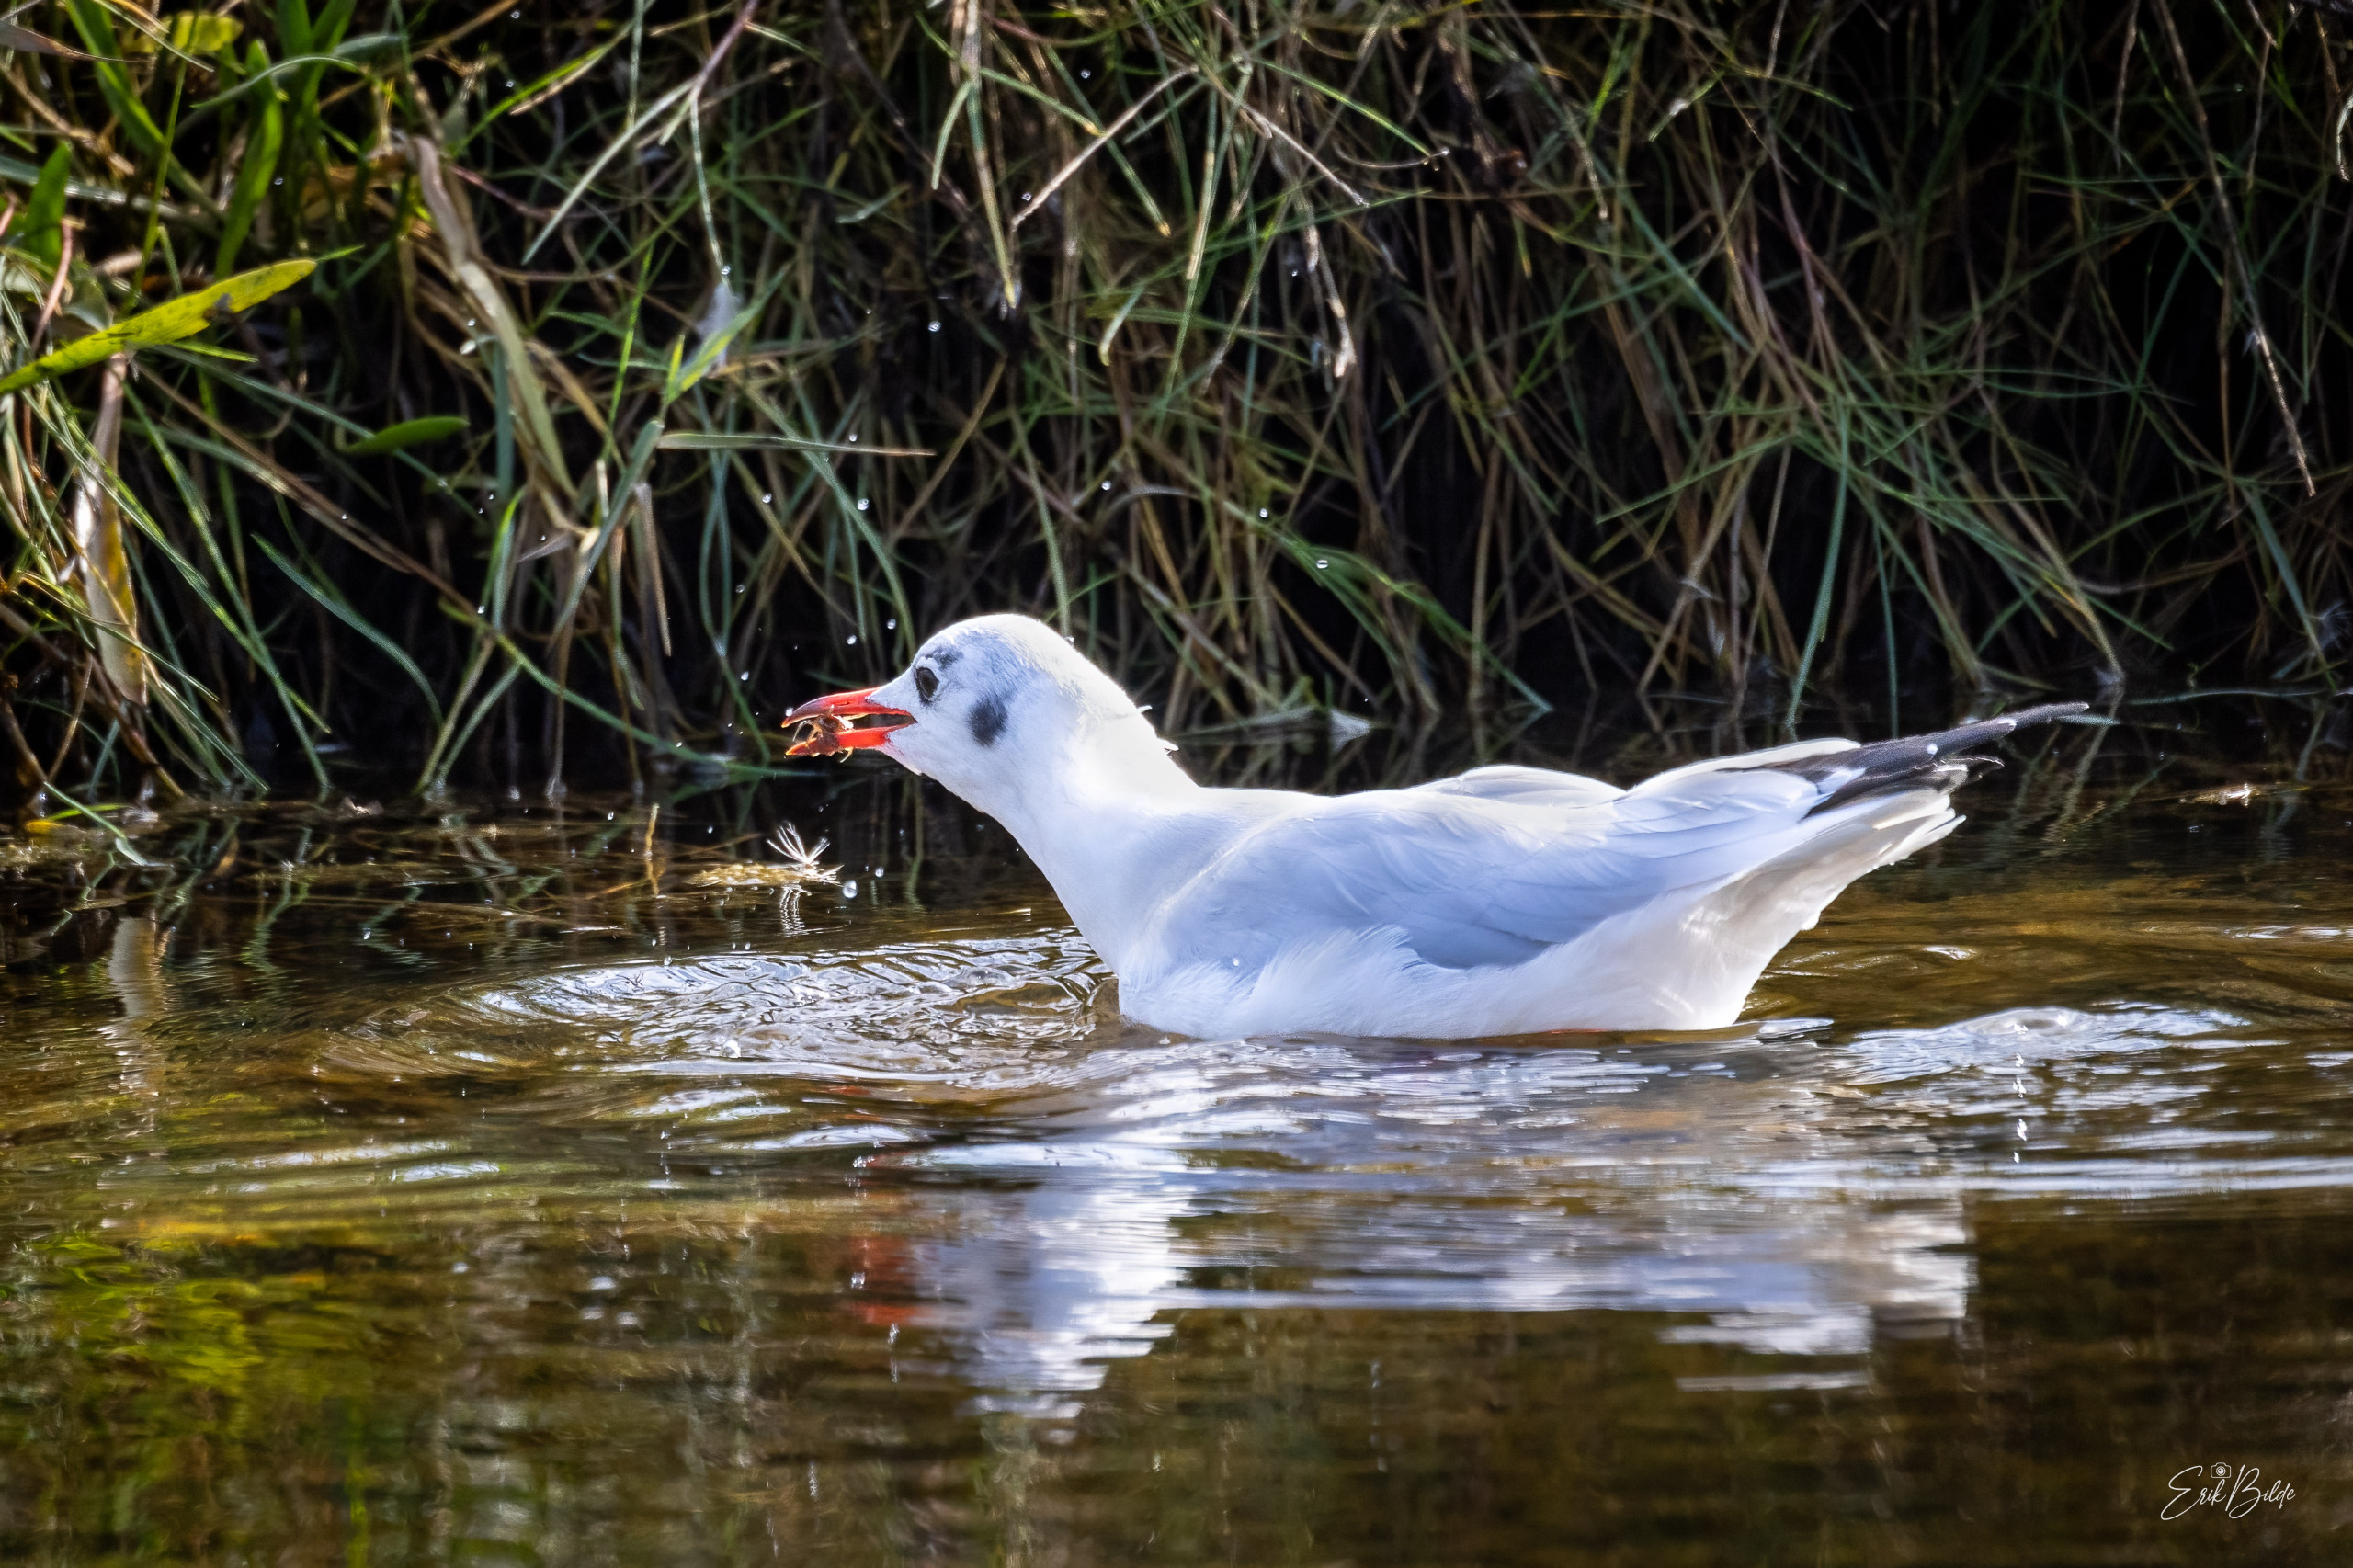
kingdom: Animalia
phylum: Chordata
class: Aves
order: Charadriiformes
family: Laridae
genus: Chroicocephalus
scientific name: Chroicocephalus ridibundus
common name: Hættemåge
